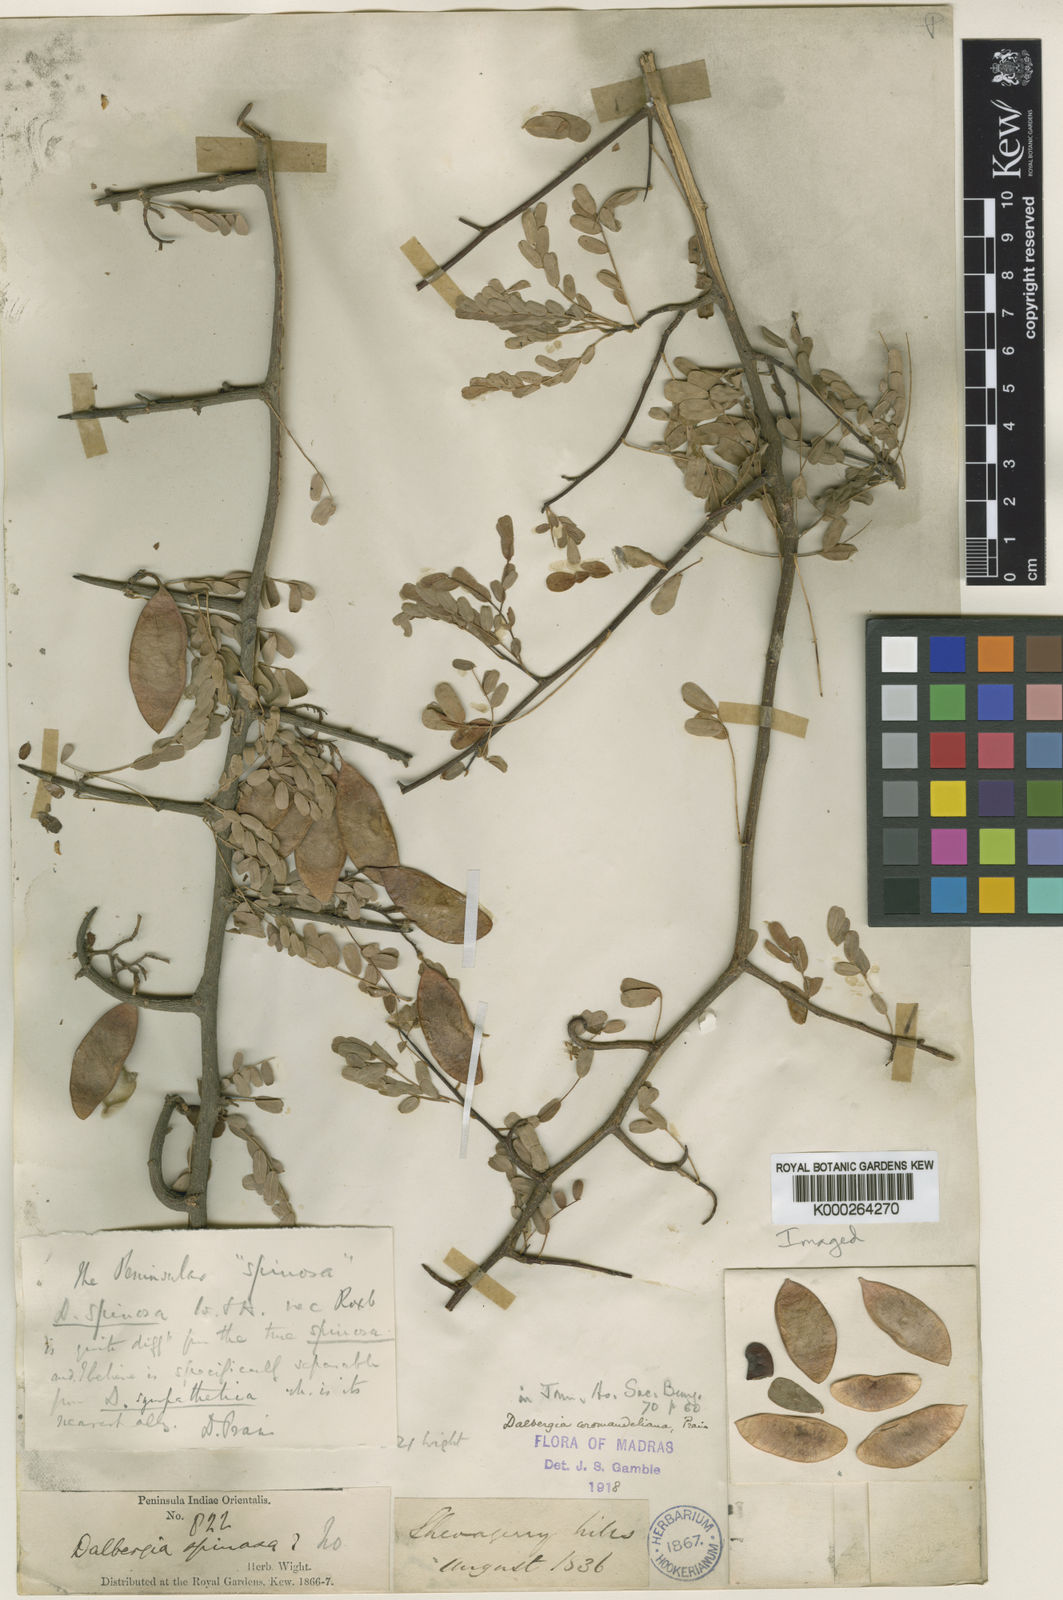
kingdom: Plantae
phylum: Tracheophyta
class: Magnoliopsida
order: Fabales
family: Fabaceae
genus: Dalbergia
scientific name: Dalbergia coromandeliana
